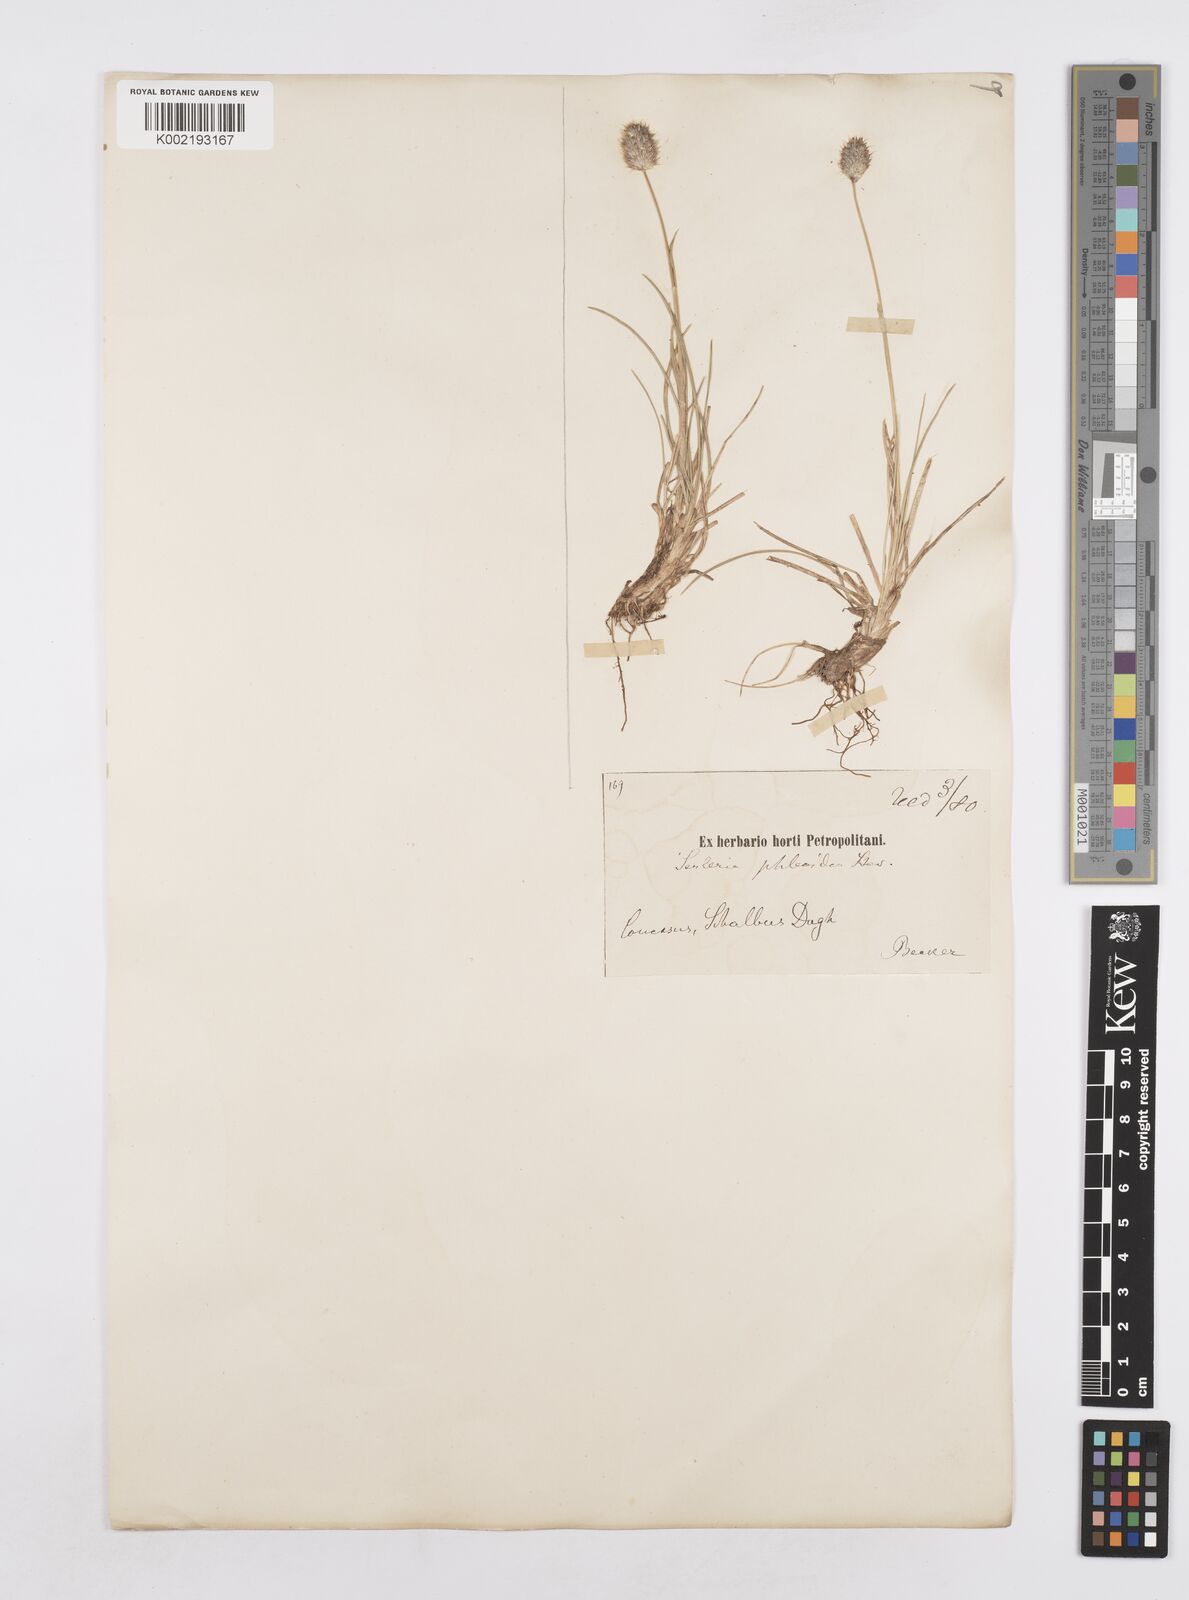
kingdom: Plantae
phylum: Tracheophyta
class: Liliopsida
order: Poales
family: Poaceae
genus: Sesleria
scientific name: Sesleria phleoides
